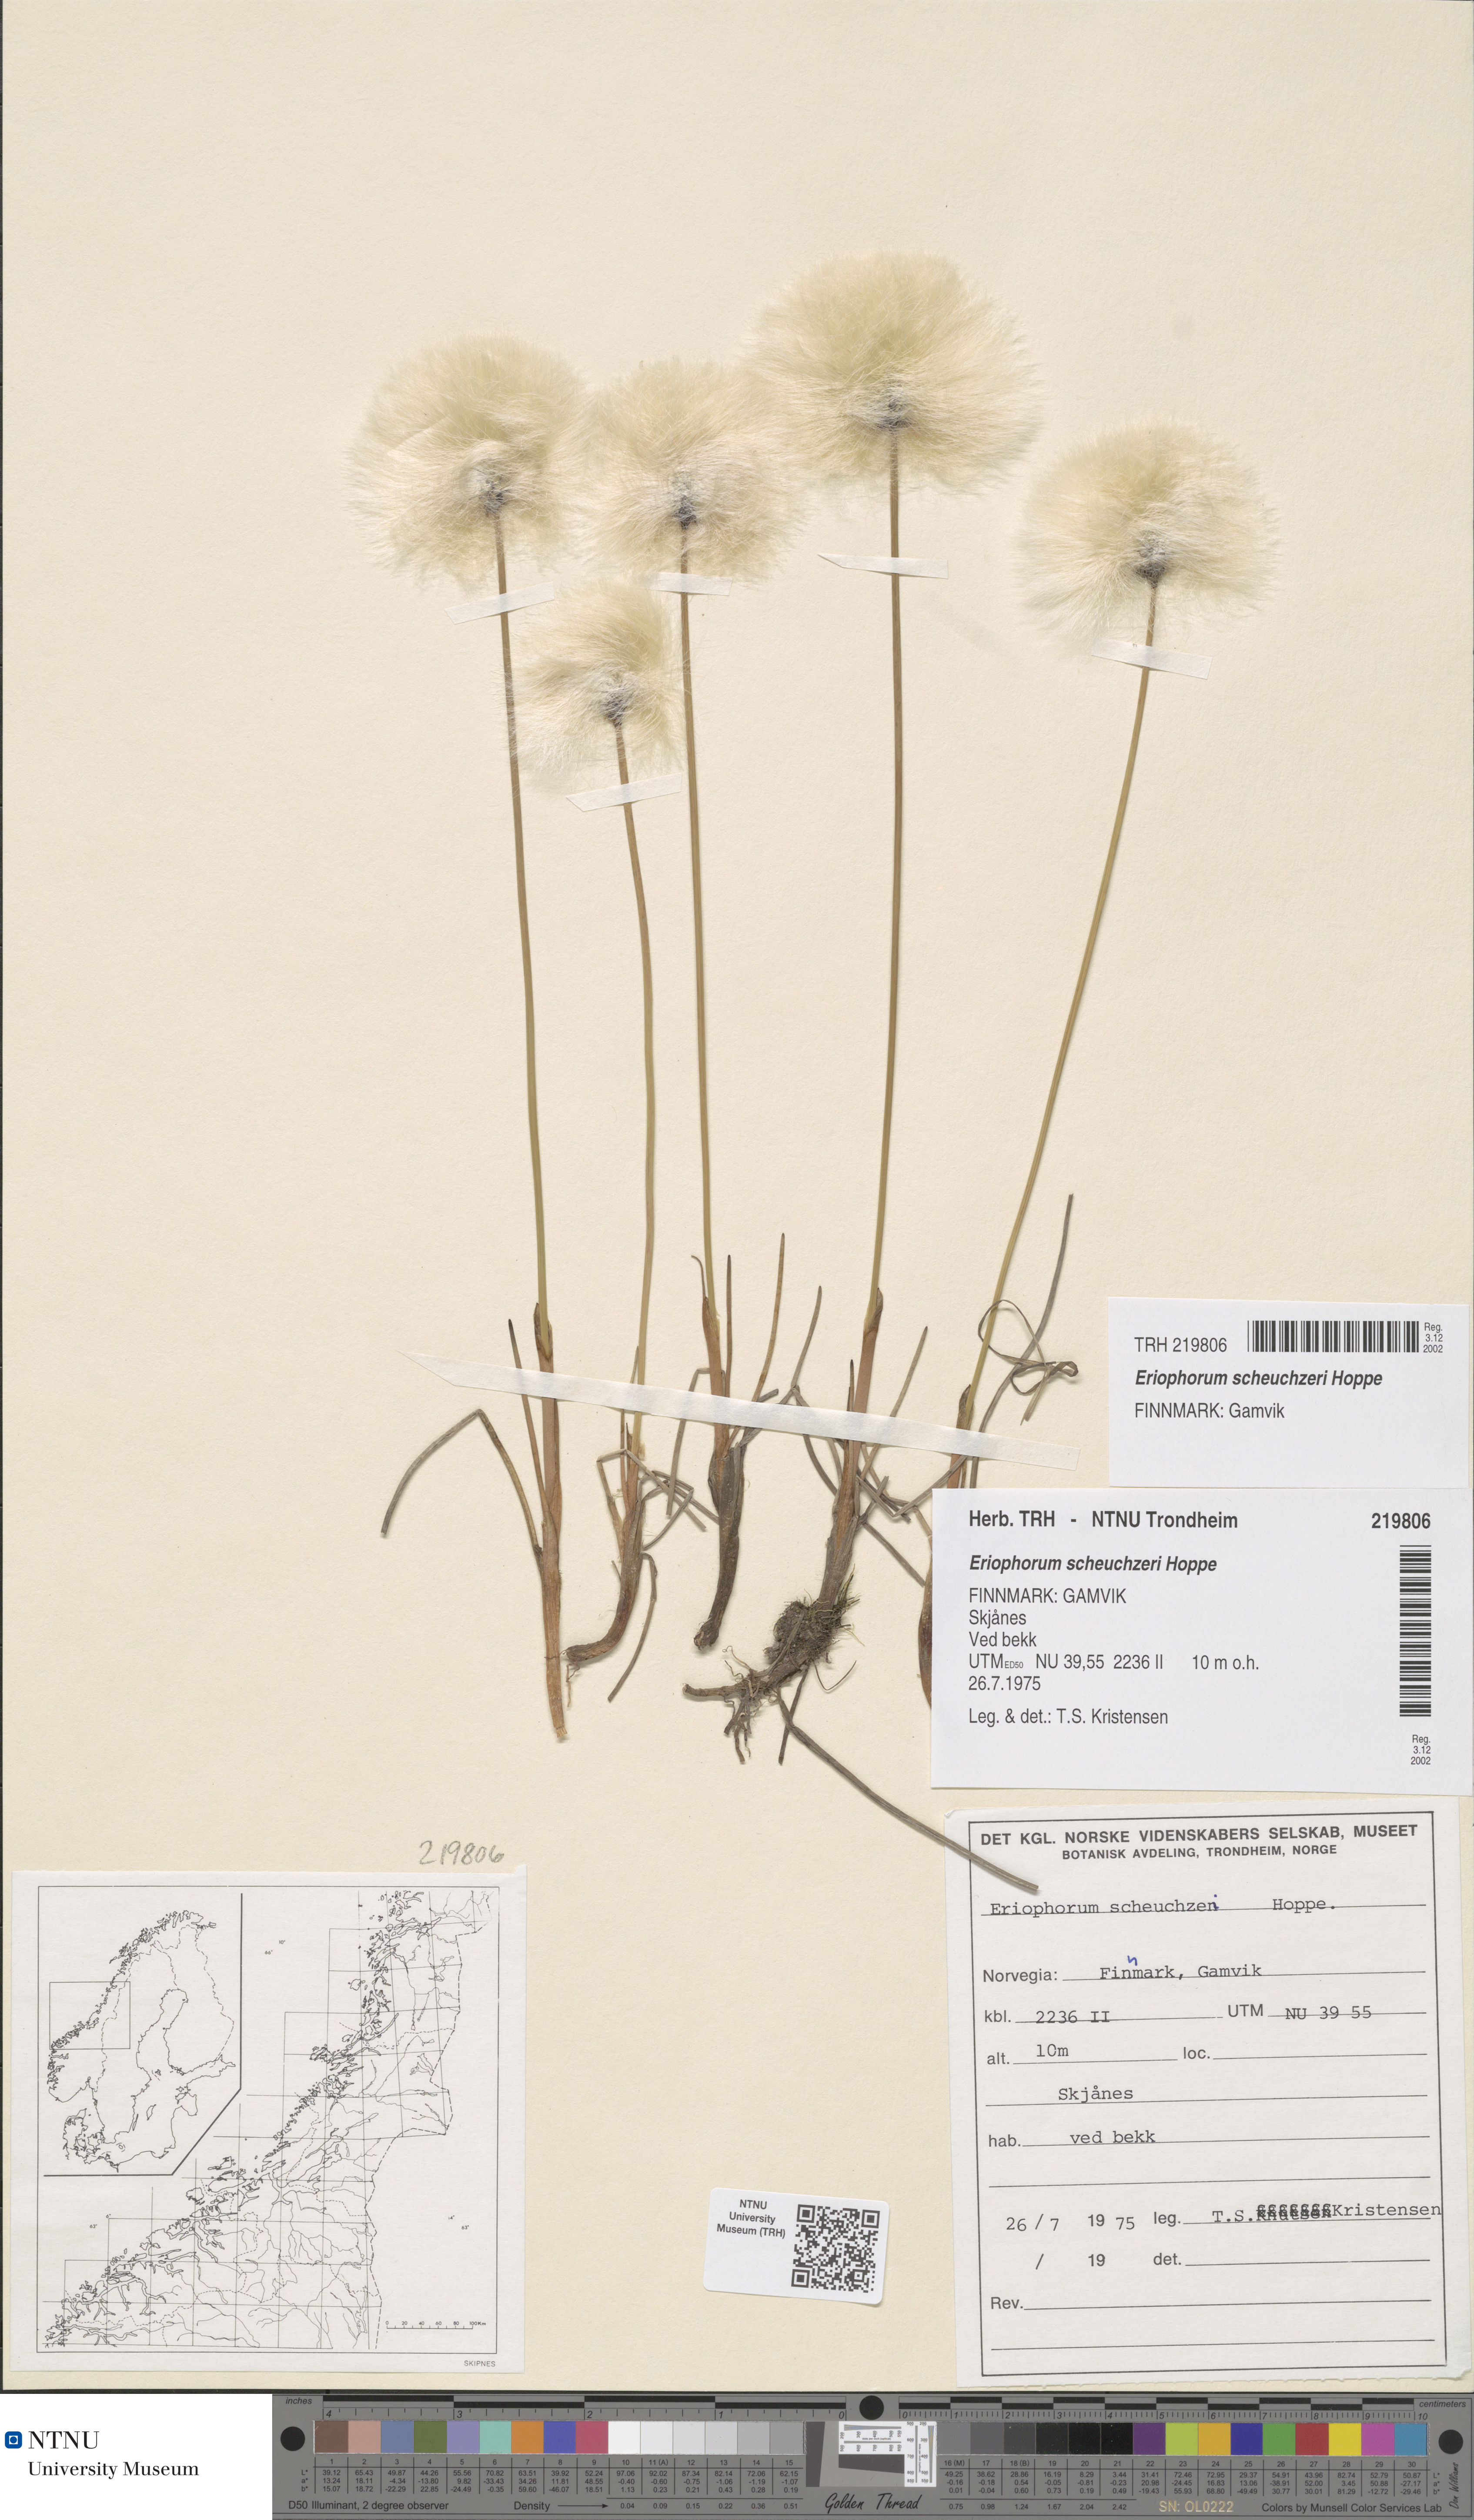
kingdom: Plantae
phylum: Tracheophyta
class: Liliopsida
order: Poales
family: Cyperaceae
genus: Eriophorum
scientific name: Eriophorum scheuchzeri
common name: Scheuchzer's cottongrass
